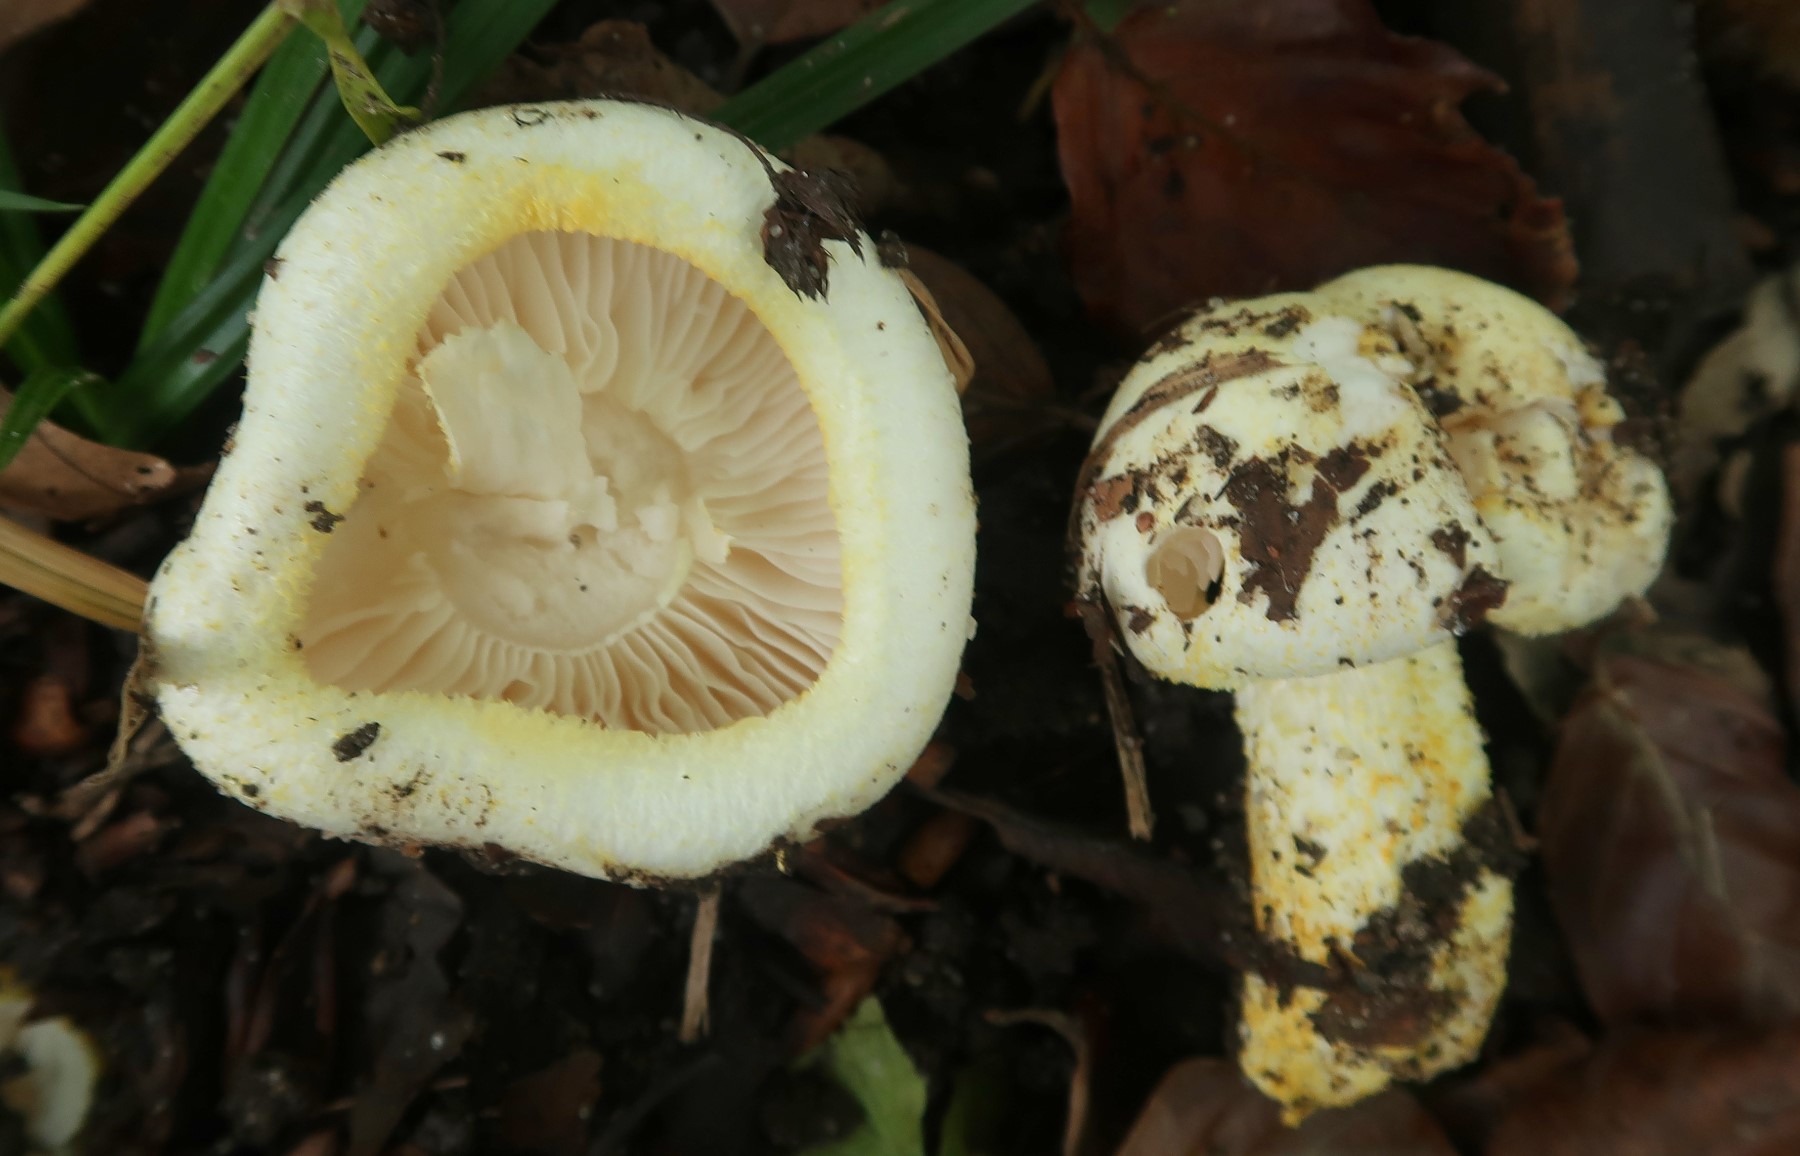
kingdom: Fungi
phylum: Basidiomycota
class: Agaricomycetes
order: Agaricales
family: Hygrophoraceae
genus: Hygrophorus
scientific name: Hygrophorus chrysodon
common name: gulfnugget sneglehat
